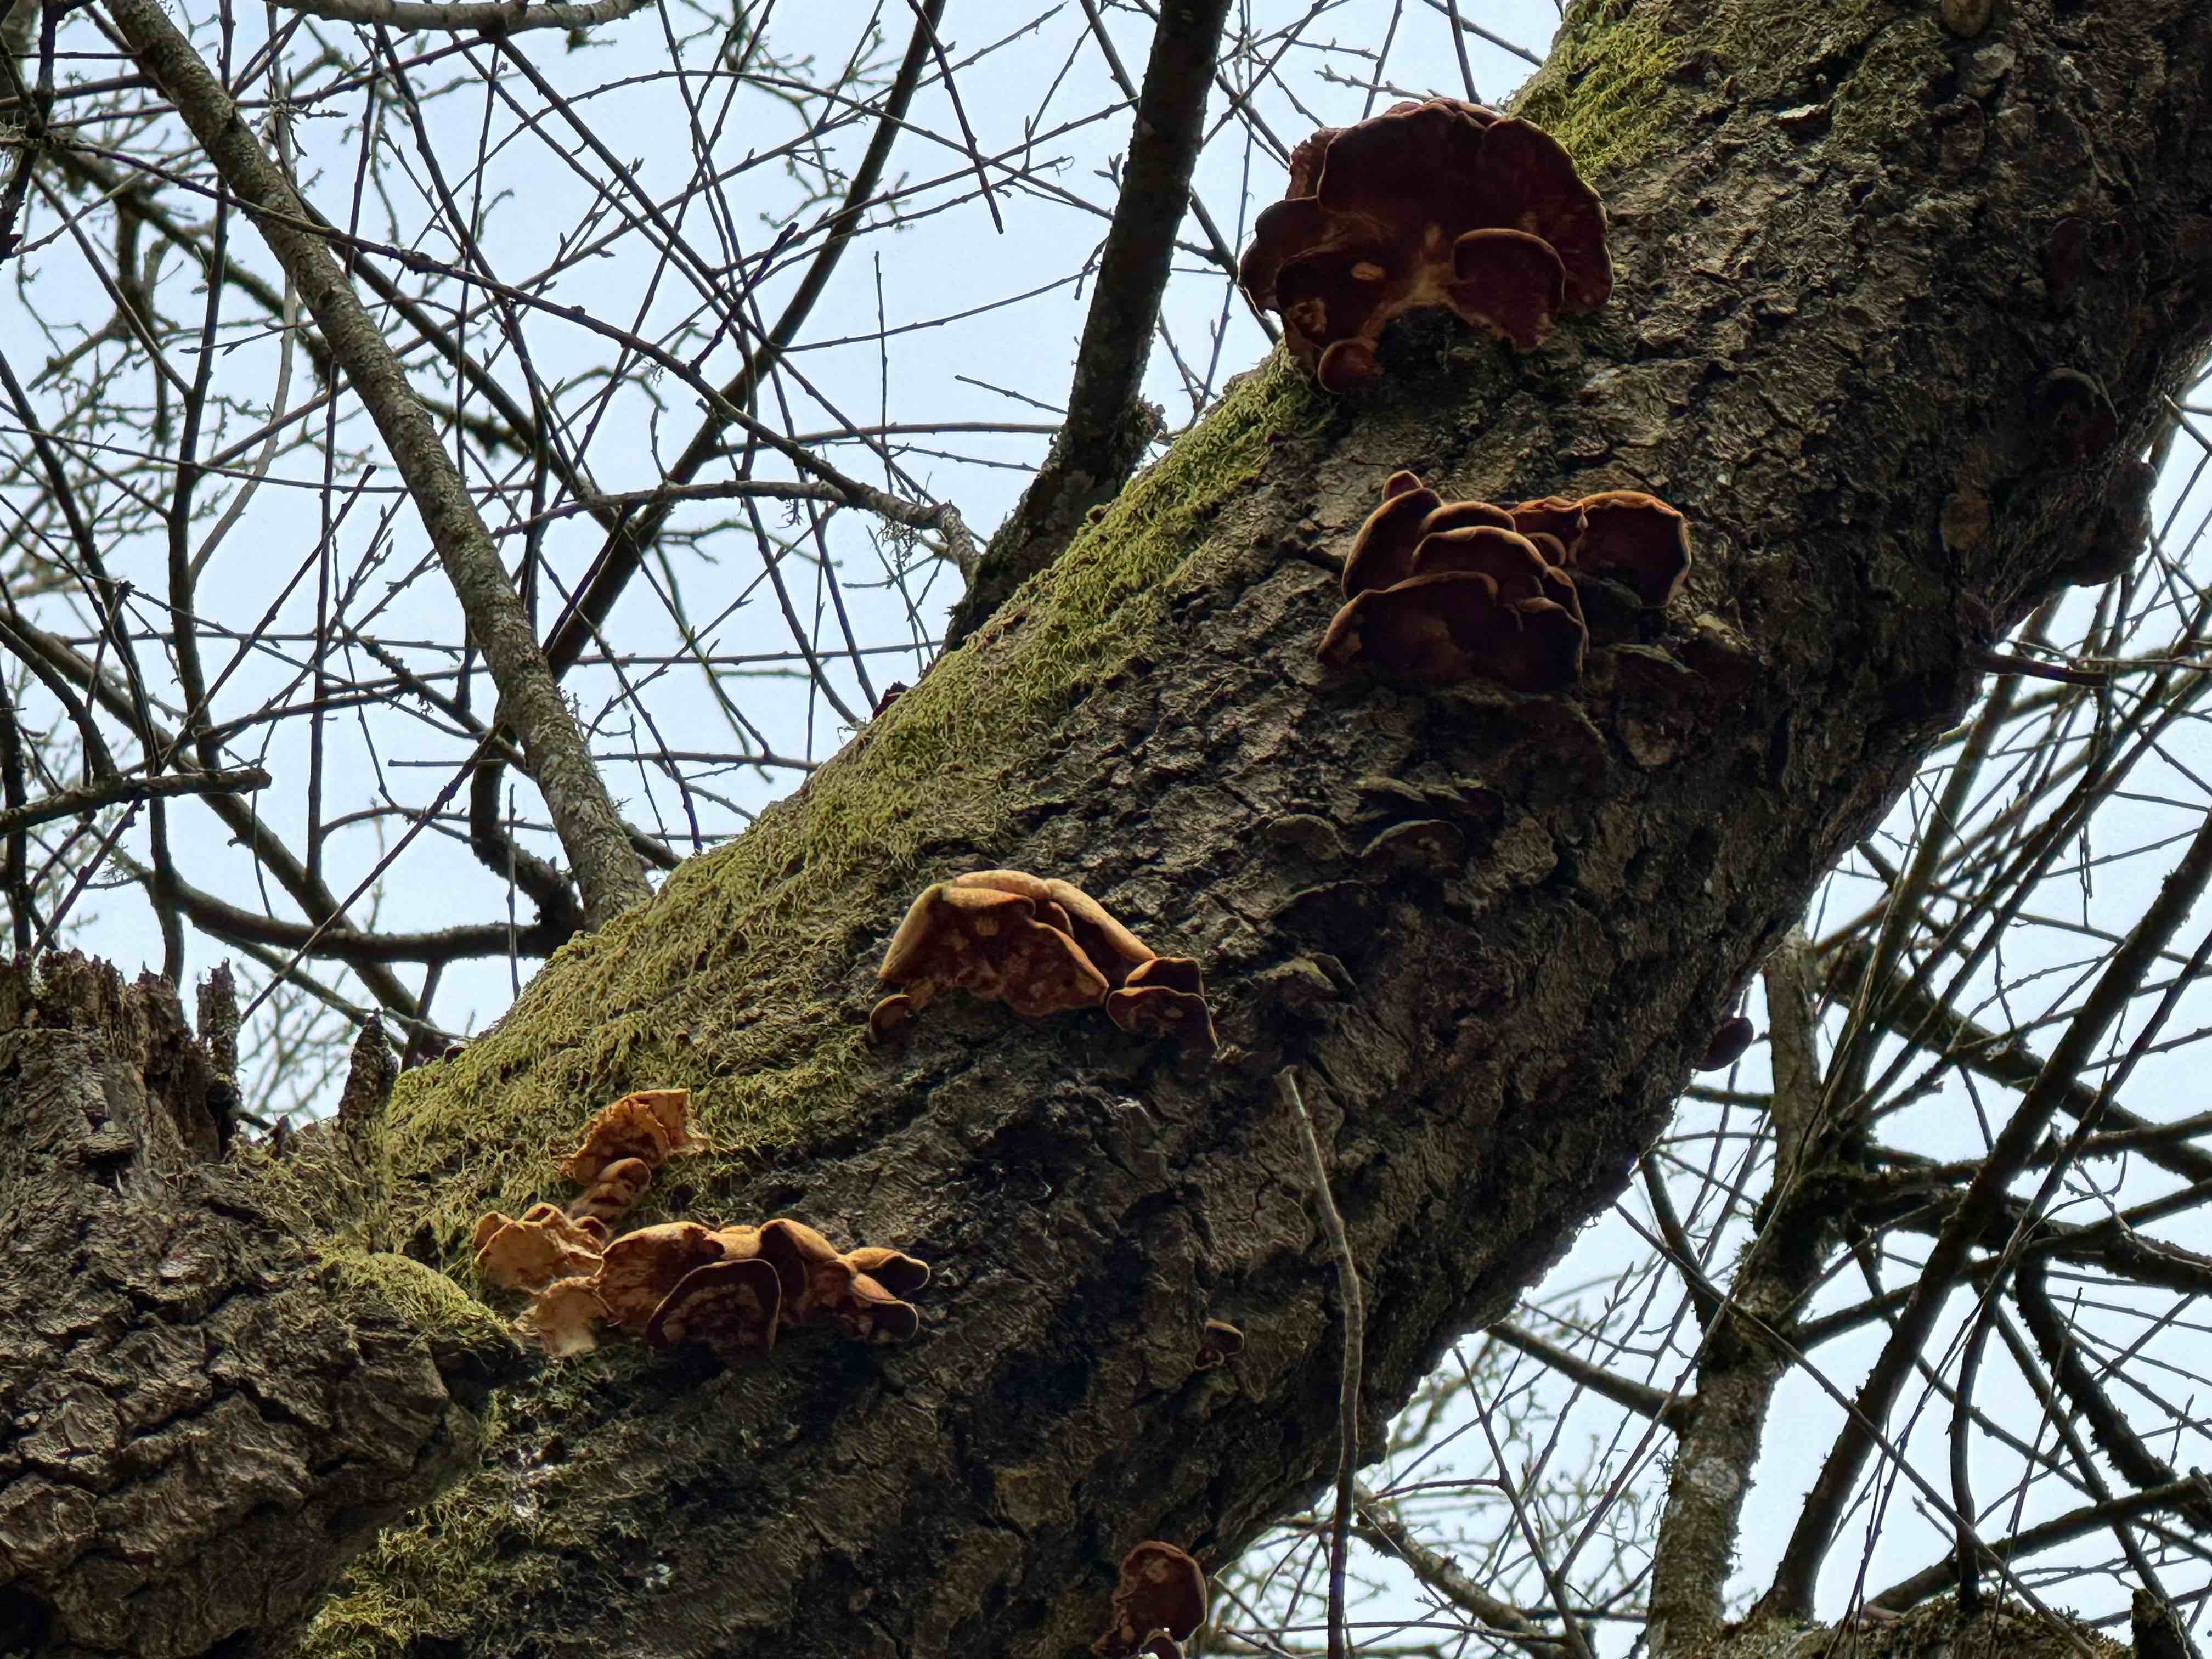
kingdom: Fungi
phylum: Basidiomycota
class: Agaricomycetes
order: Agaricales
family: Phyllotopsidaceae
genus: Phyllotopsis
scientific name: Phyllotopsis nidulans
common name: okkerblad
